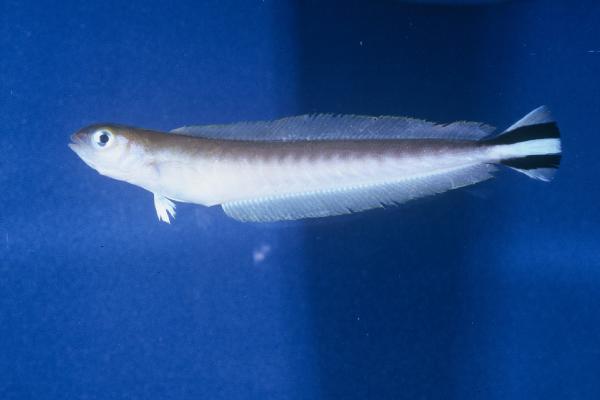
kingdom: Animalia
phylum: Chordata
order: Perciformes
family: Malacanthidae
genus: Malacanthus
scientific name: Malacanthus brevirostris
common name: Flagtail blanquillo
